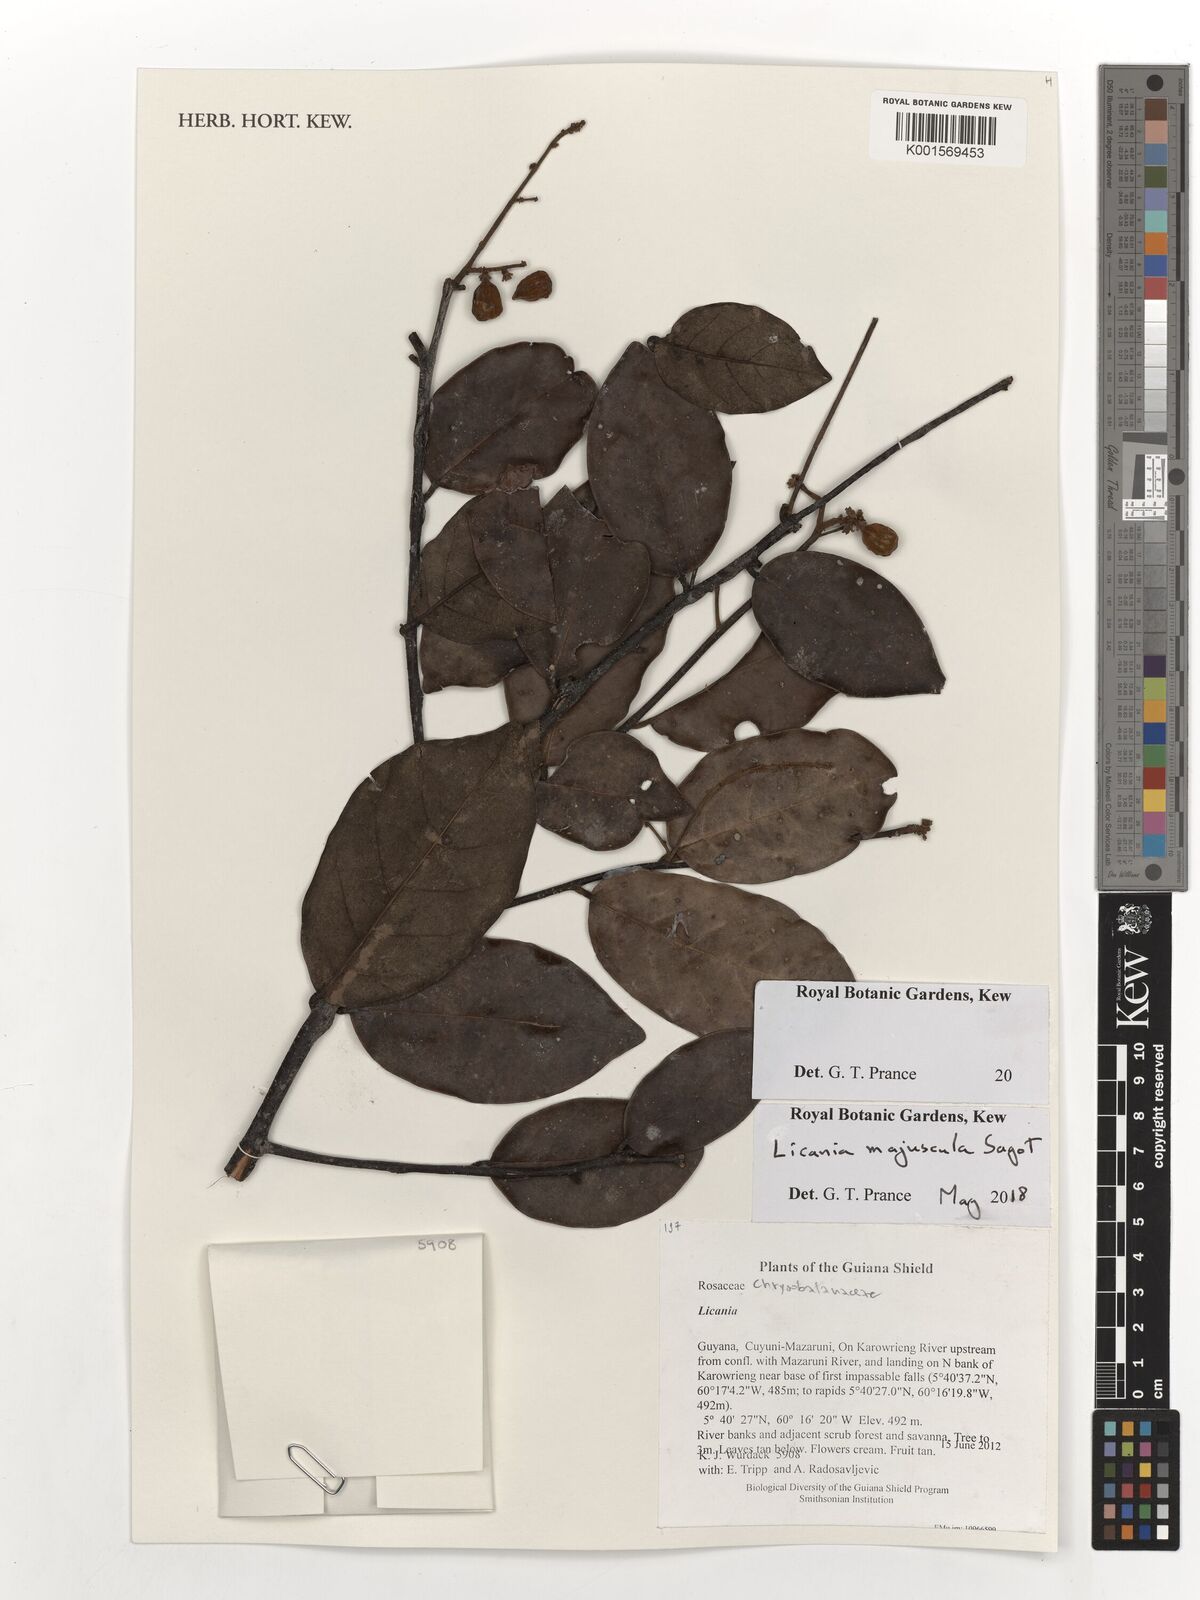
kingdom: Plantae
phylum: Tracheophyta
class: Magnoliopsida
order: Malpighiales
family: Chrysobalanaceae
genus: Licania
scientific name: Licania majuscula
